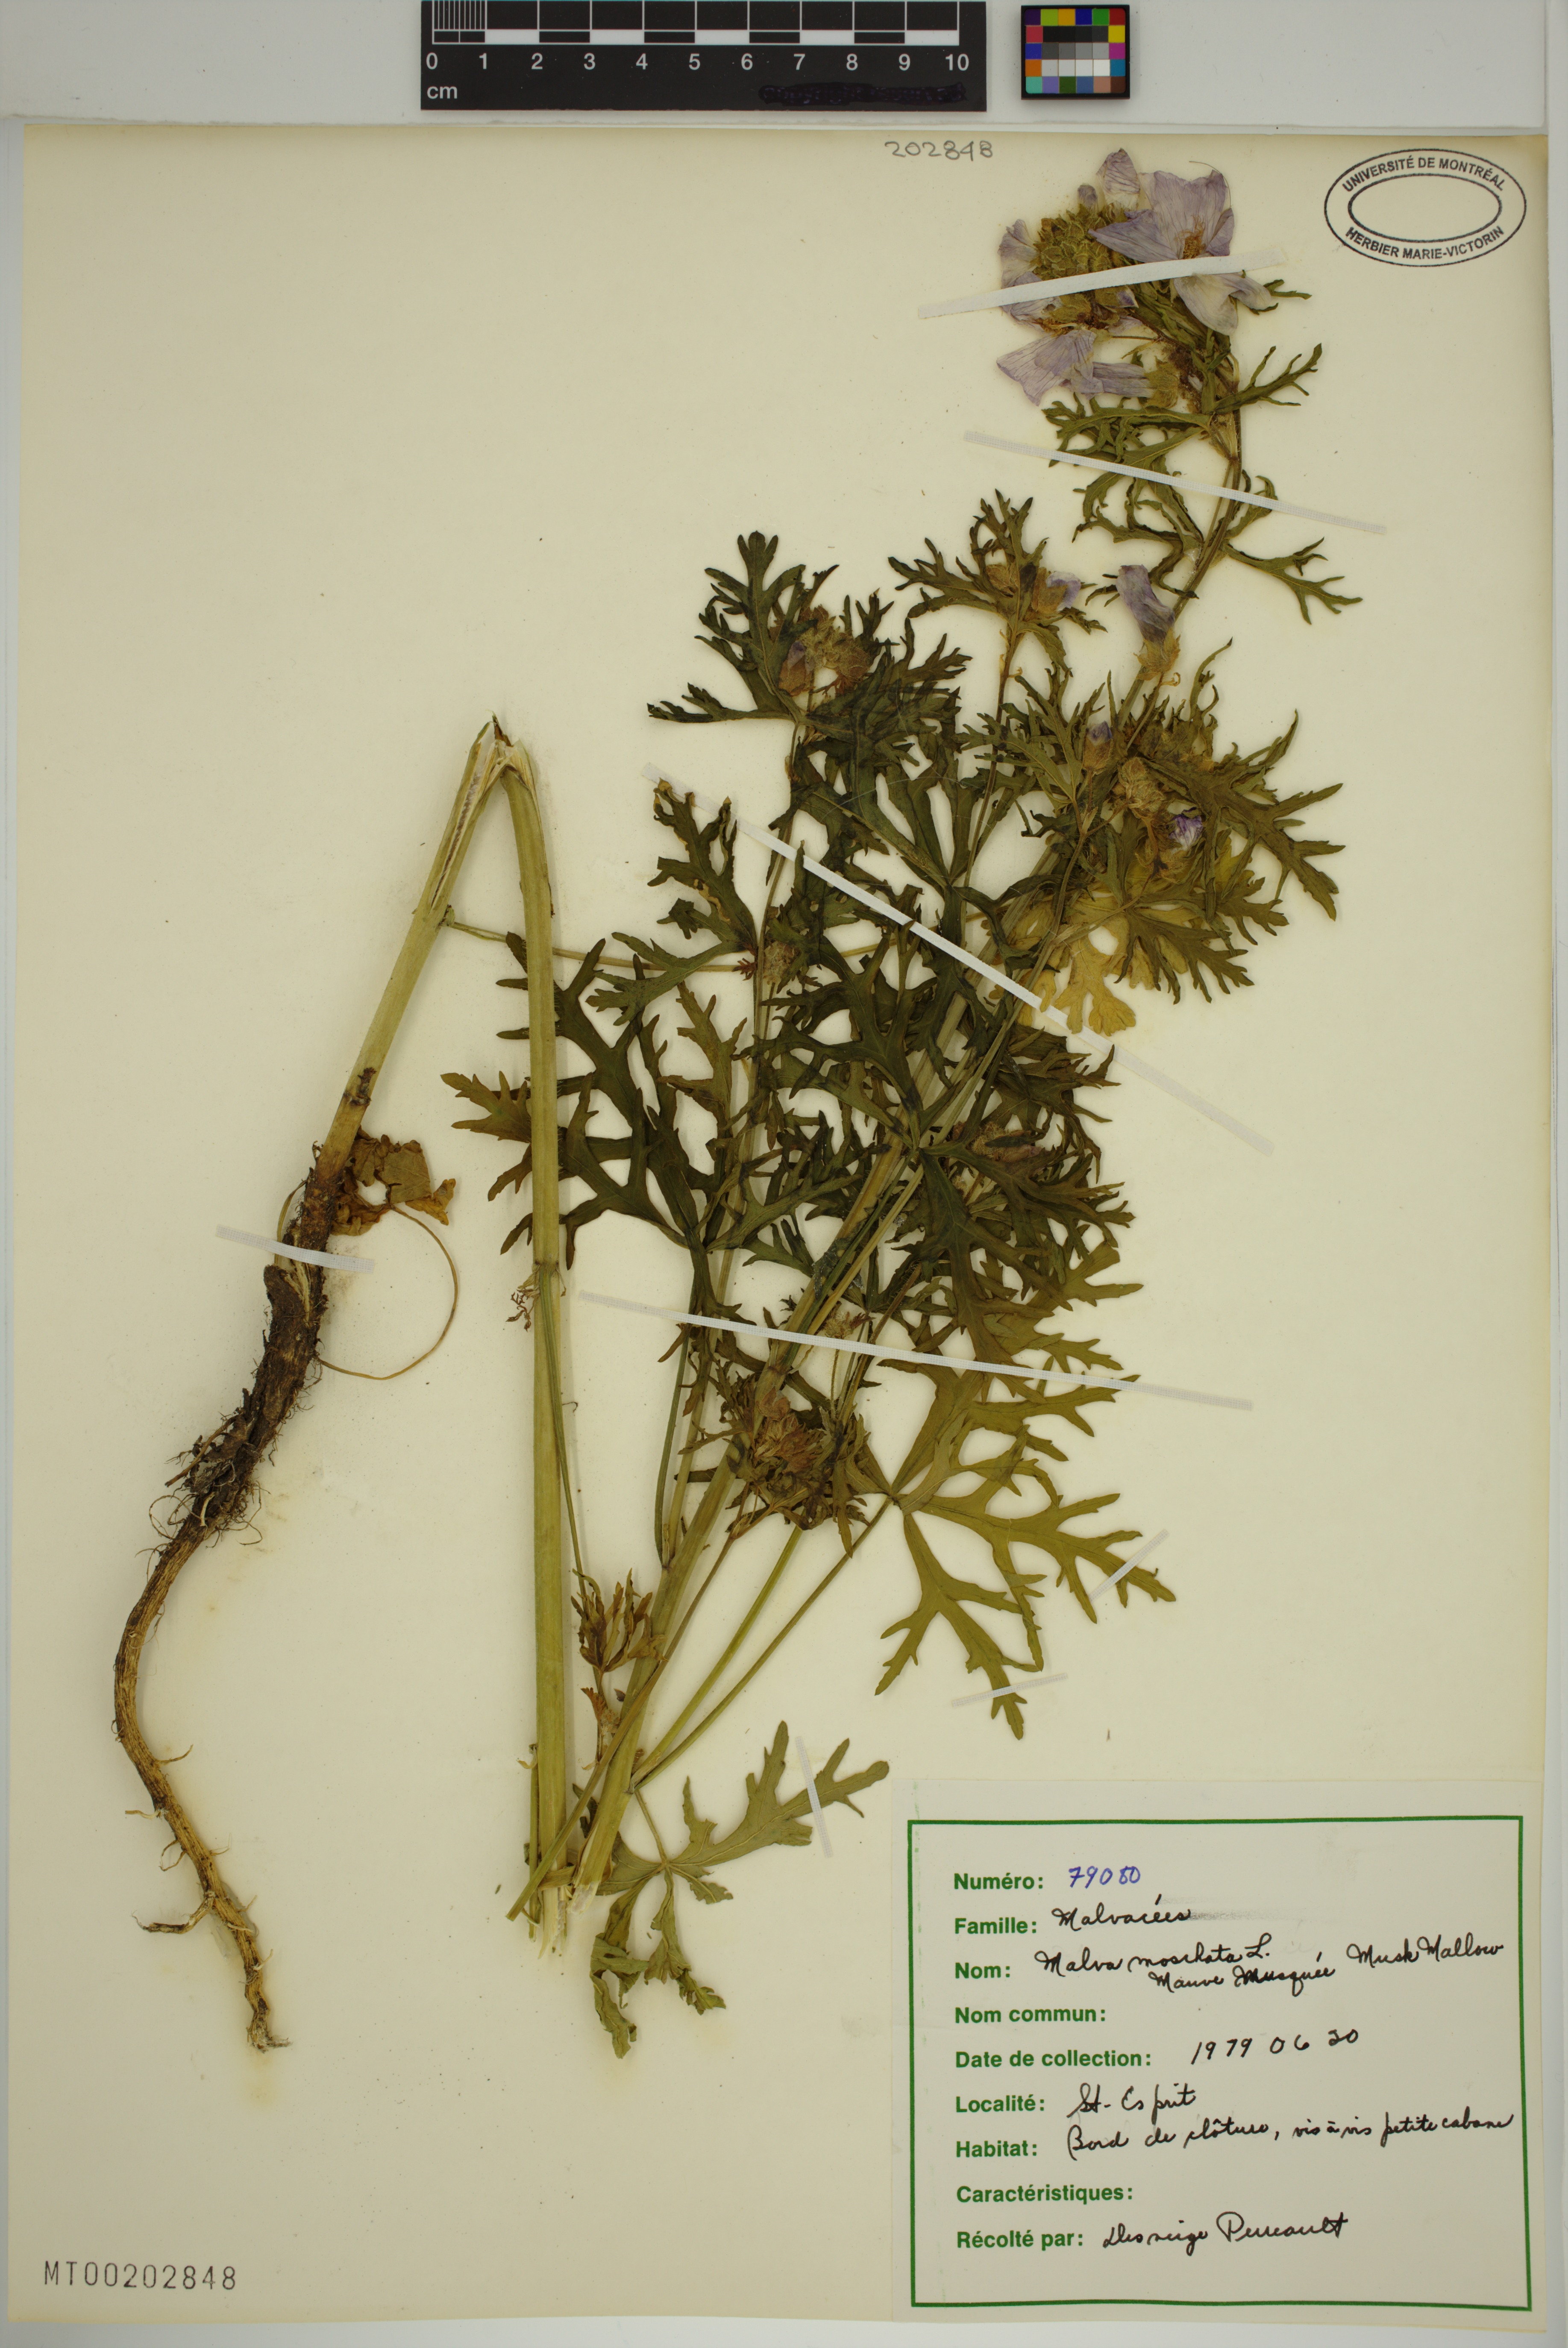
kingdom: Plantae
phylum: Tracheophyta
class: Magnoliopsida
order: Malvales
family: Malvaceae
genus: Malva
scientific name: Malva moschata
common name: Musk mallow
